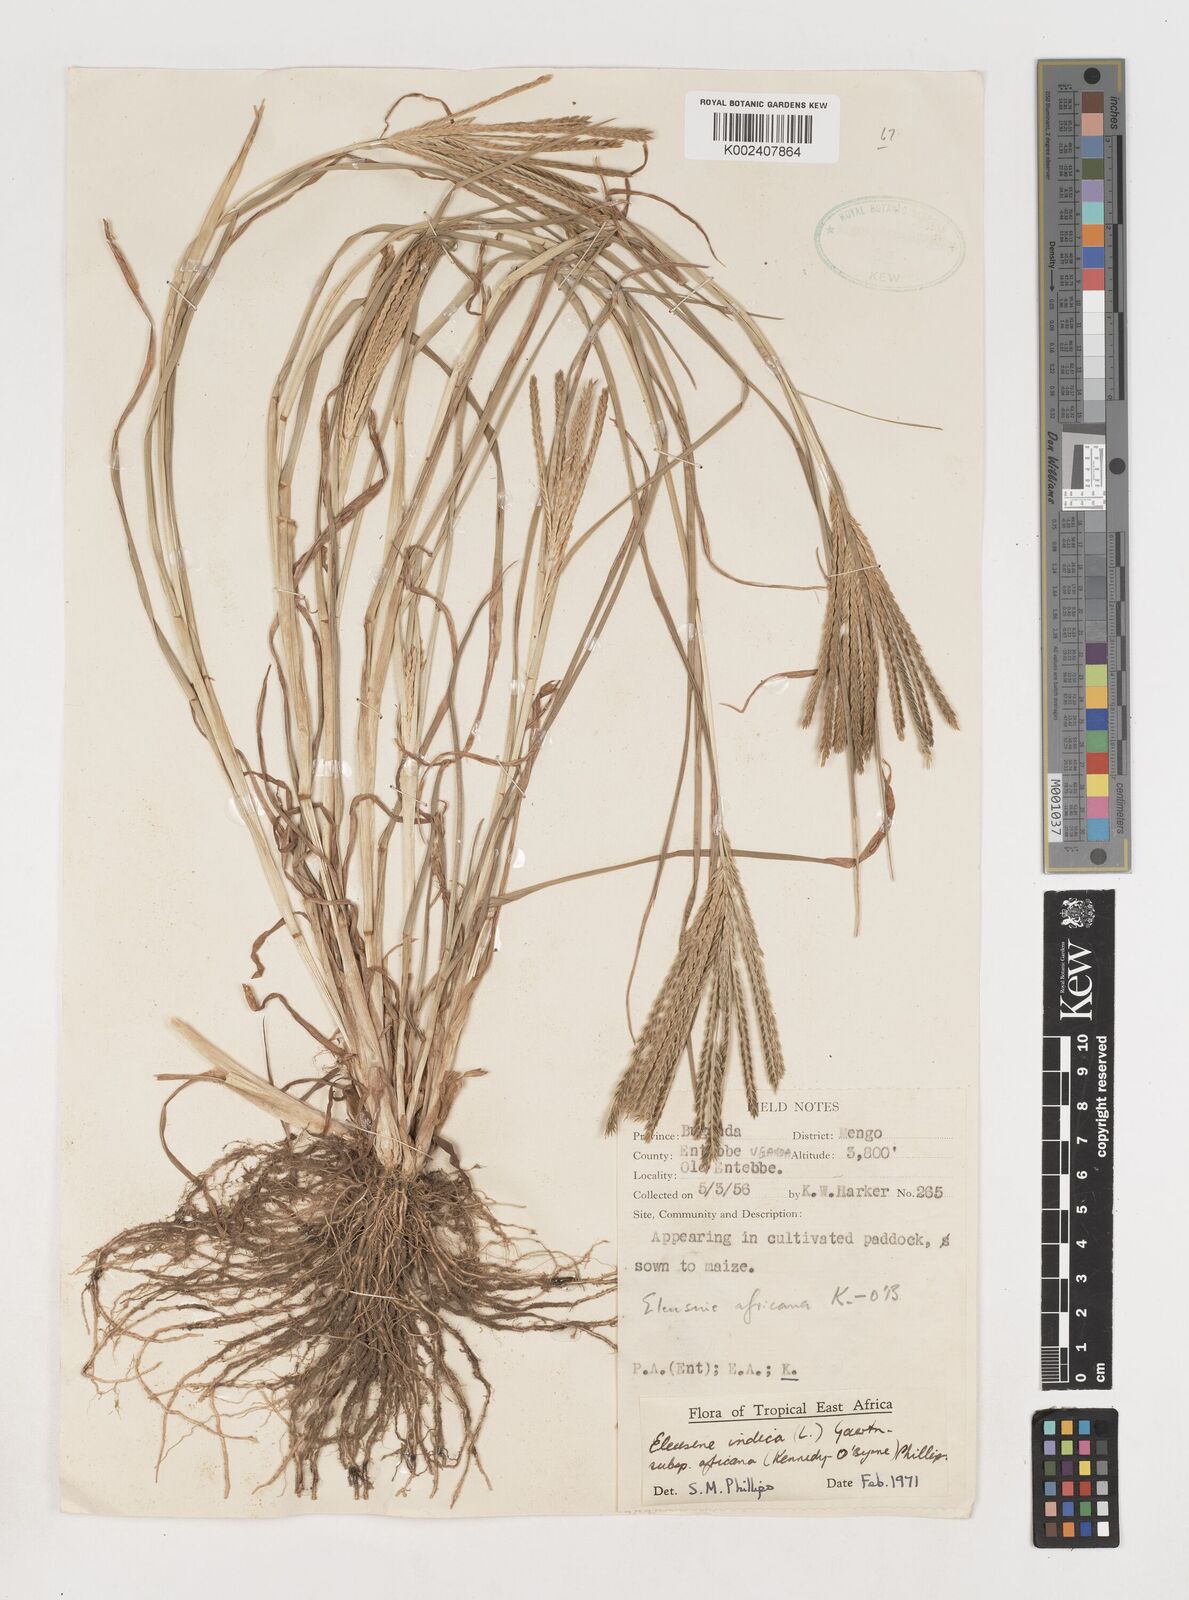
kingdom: Plantae
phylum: Tracheophyta
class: Liliopsida
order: Poales
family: Poaceae
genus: Eleusine
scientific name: Eleusine africana
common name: Wild african finger millet
